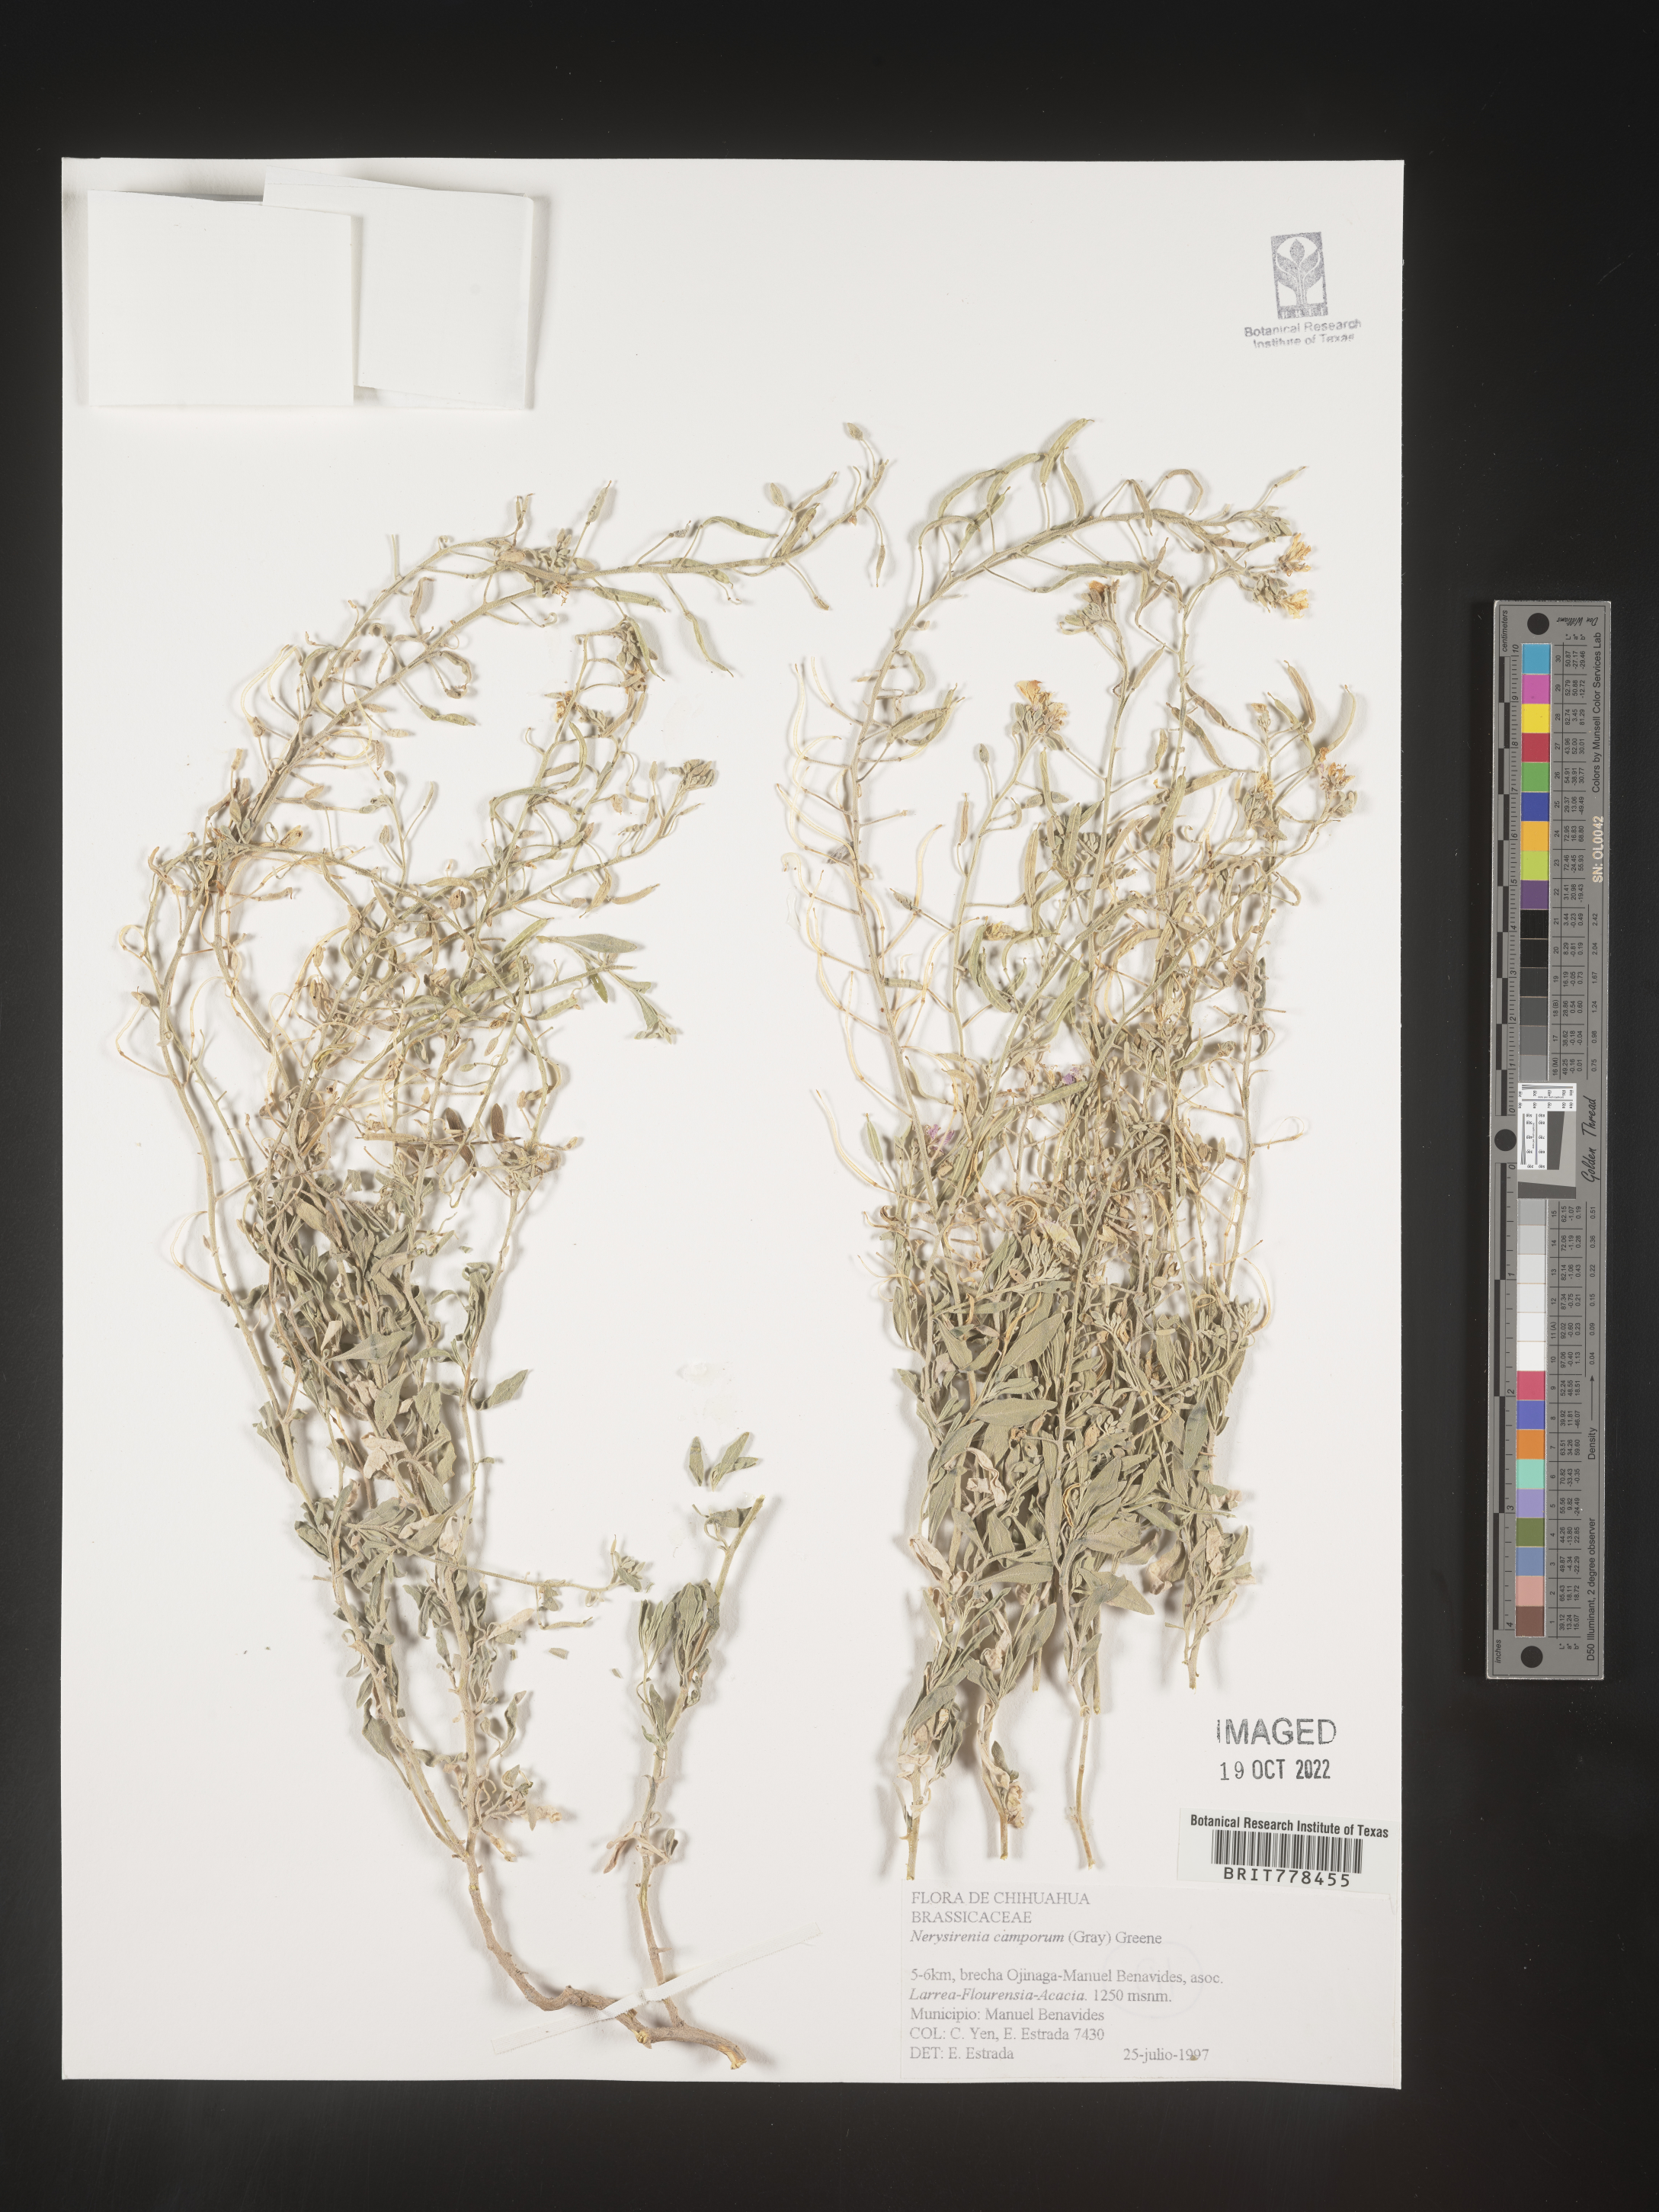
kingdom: Plantae
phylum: Tracheophyta
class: Magnoliopsida
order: Brassicales
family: Brassicaceae
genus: Nerisyrenia
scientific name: Nerisyrenia
